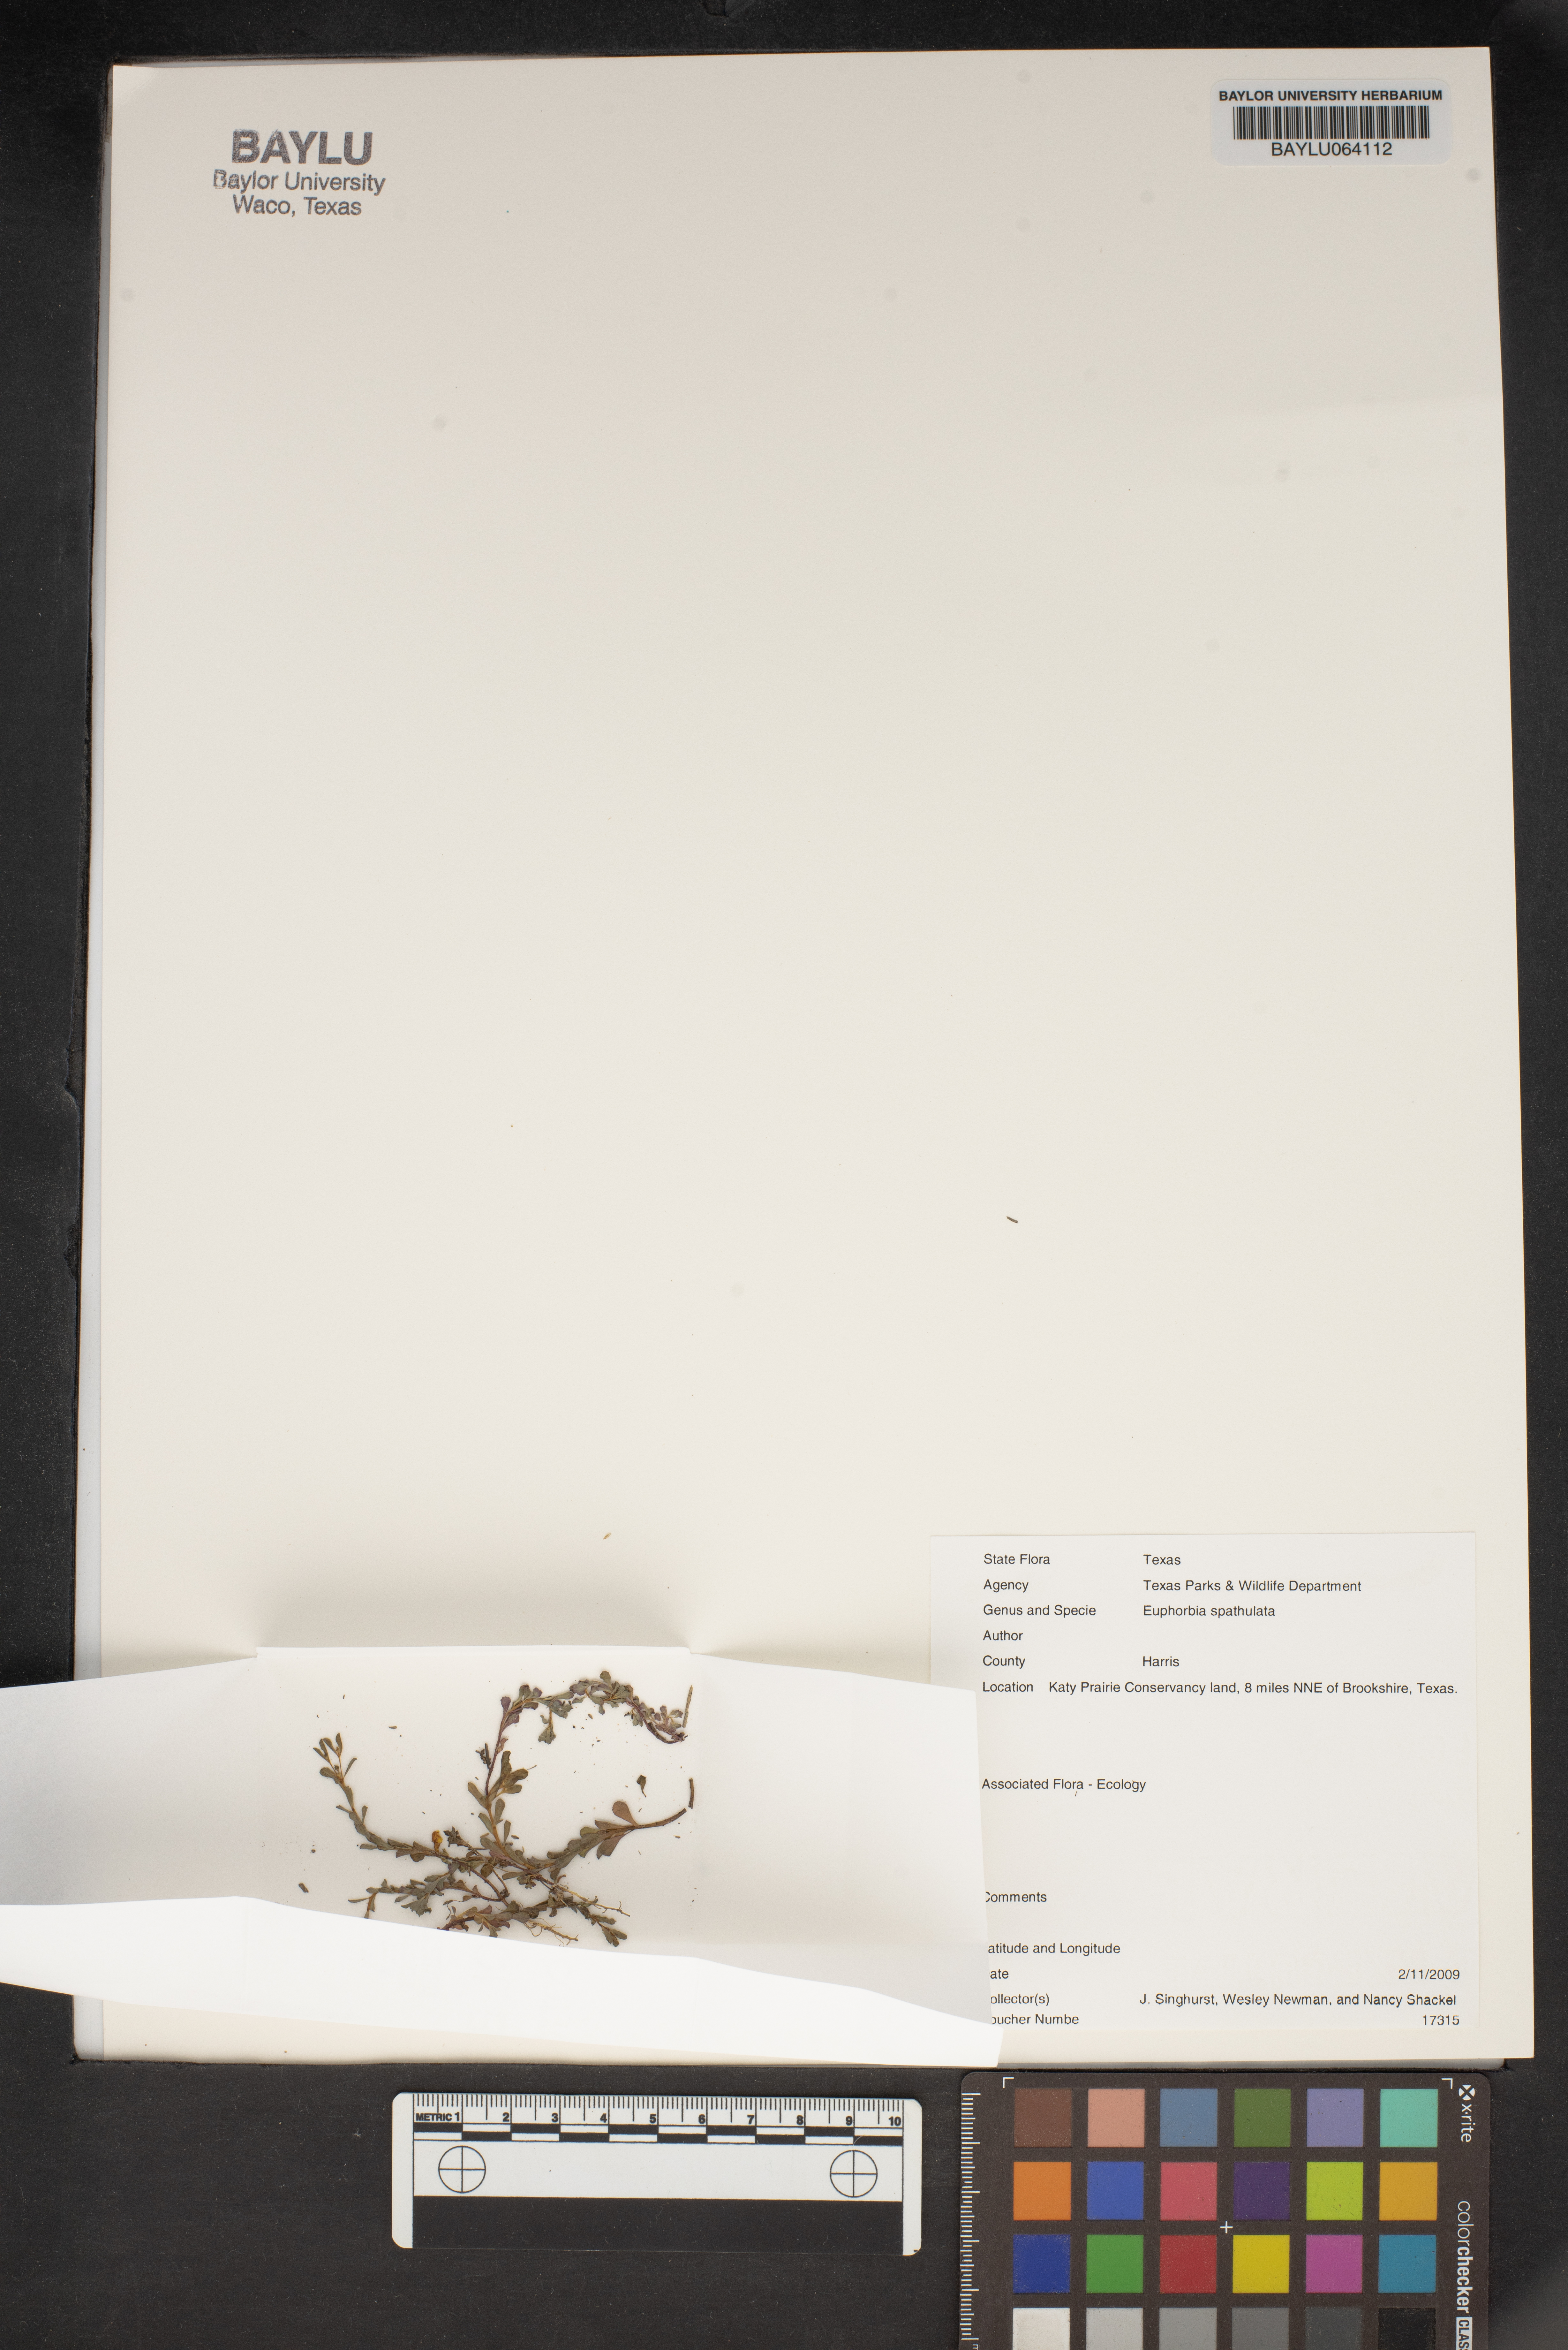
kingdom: Plantae
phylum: Tracheophyta
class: Magnoliopsida
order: Malpighiales
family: Euphorbiaceae
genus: Euphorbia
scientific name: Euphorbia spathulata
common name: Blunt spurge
